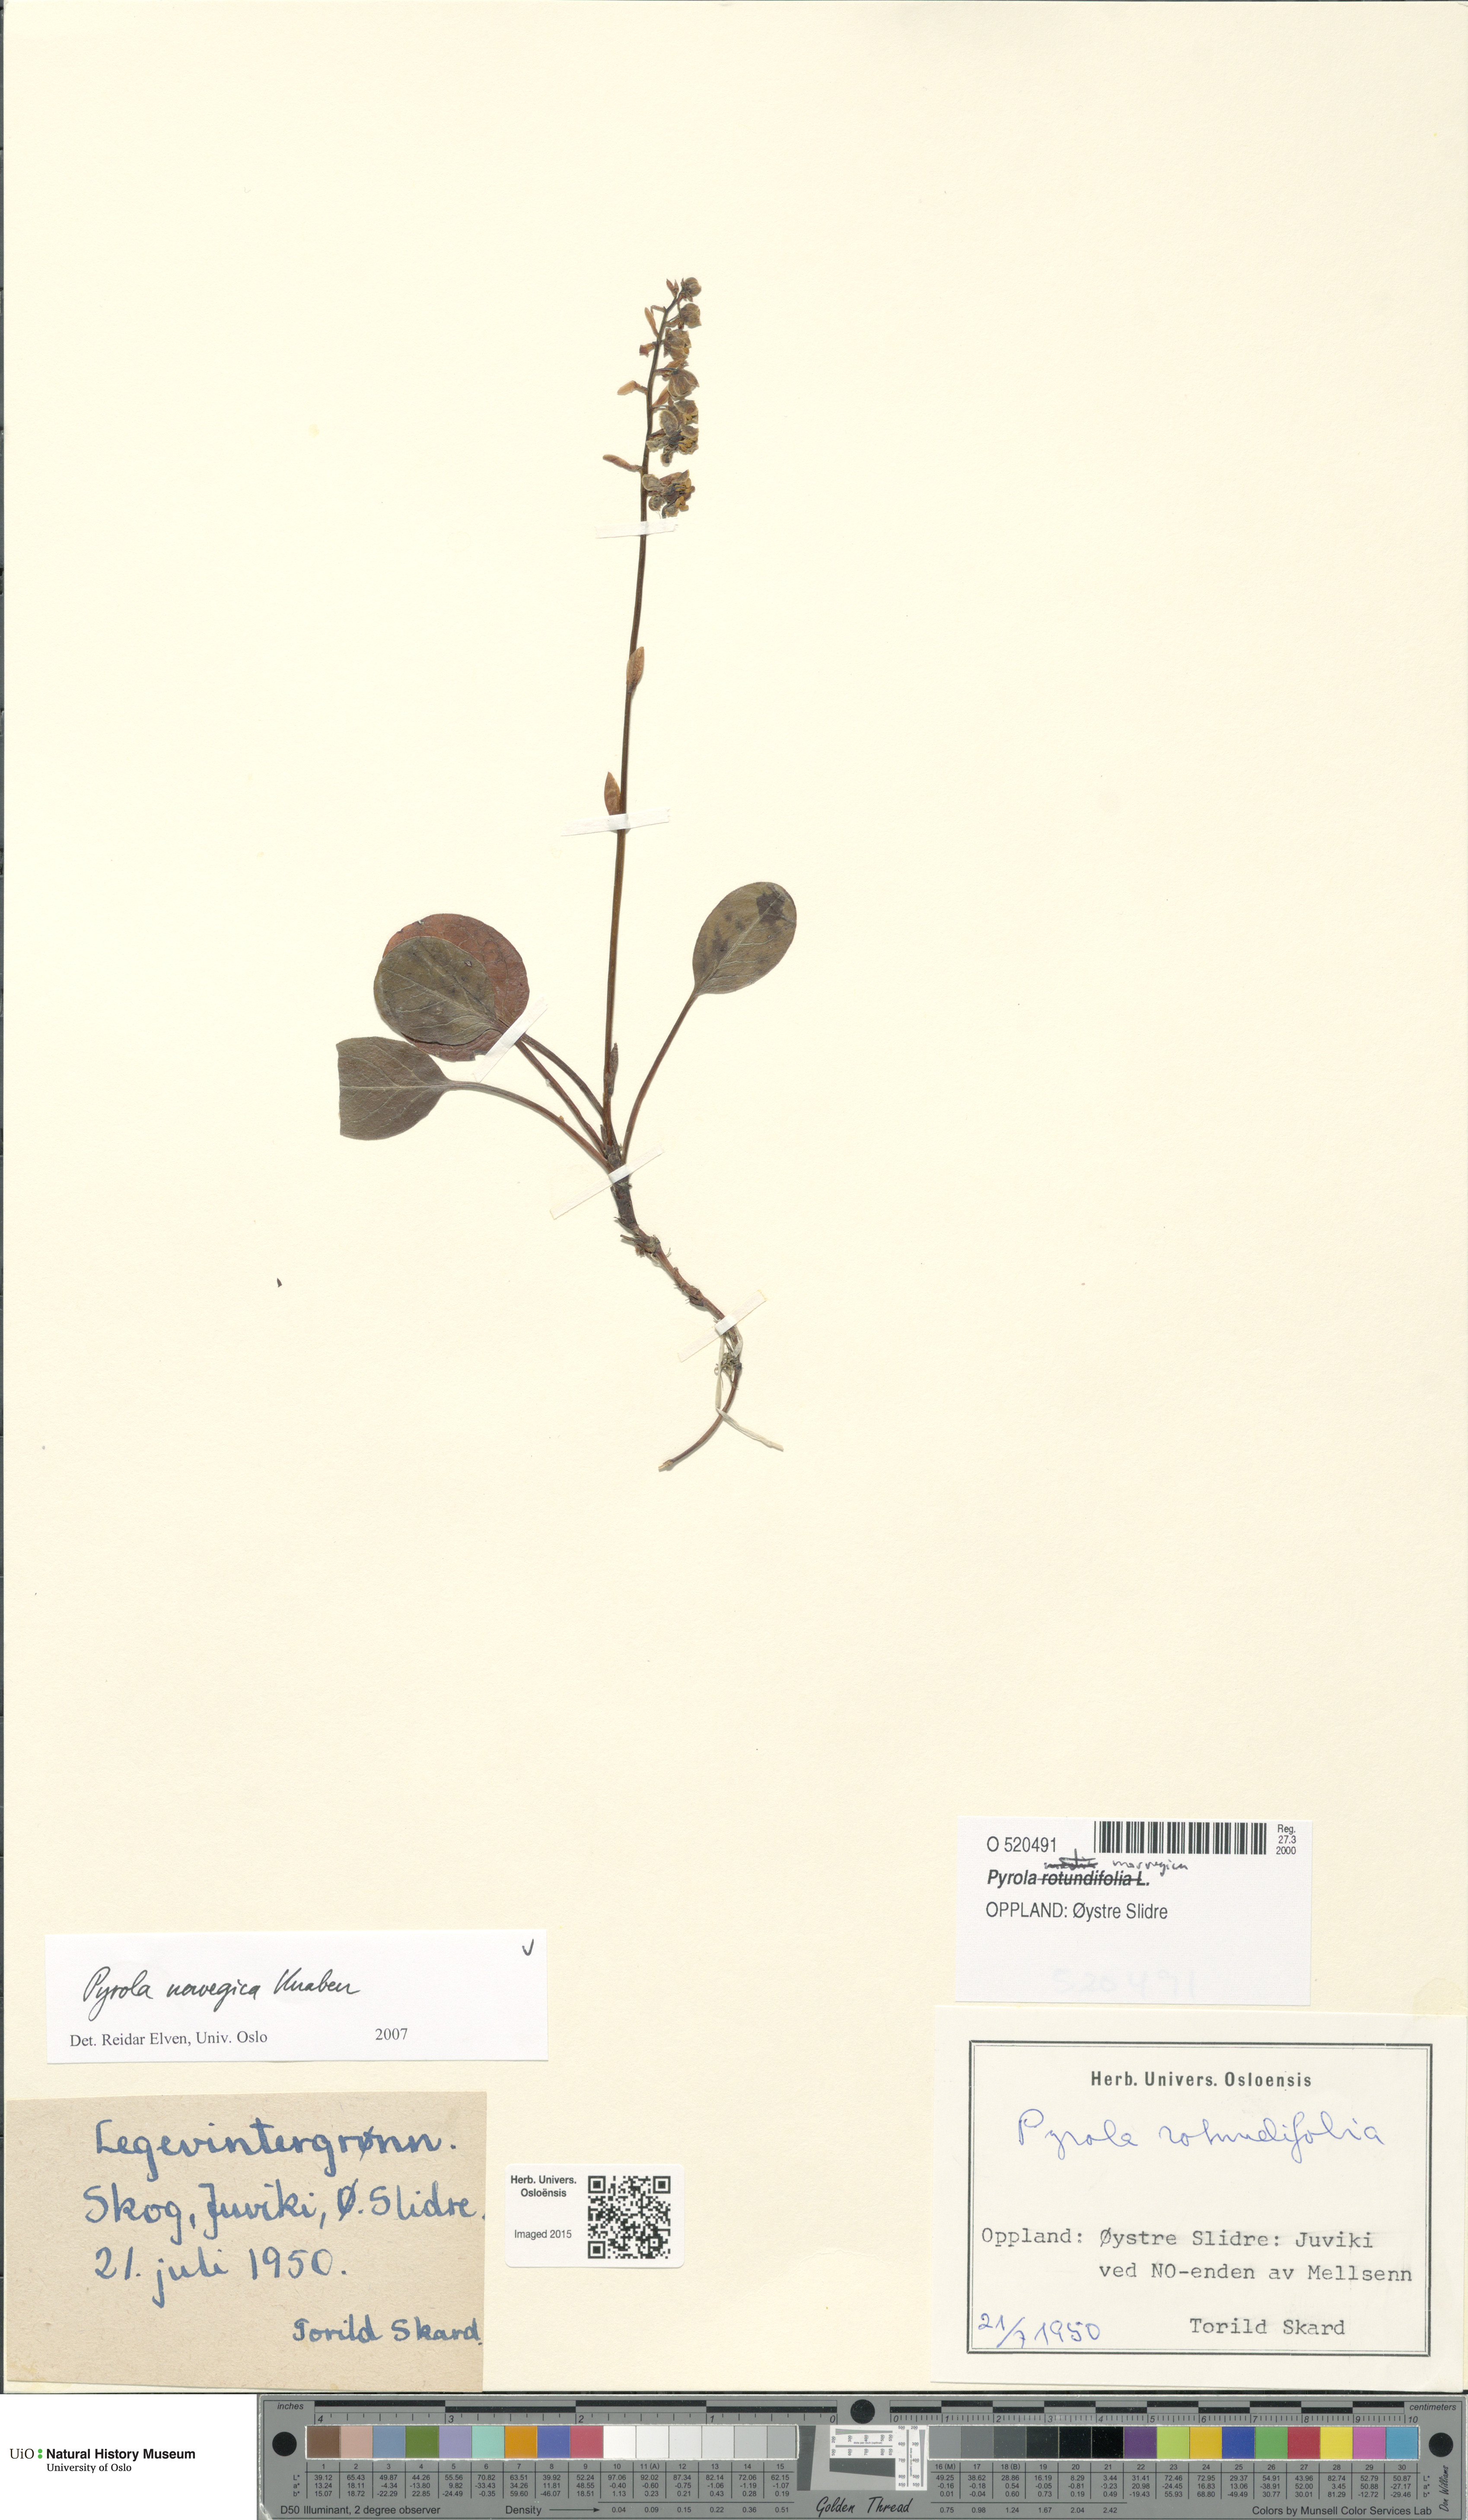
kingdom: Plantae
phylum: Tracheophyta
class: Magnoliopsida
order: Ericales
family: Ericaceae
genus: Pyrola
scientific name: Pyrola rotundifolia
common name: Round-leaved wintergreen
